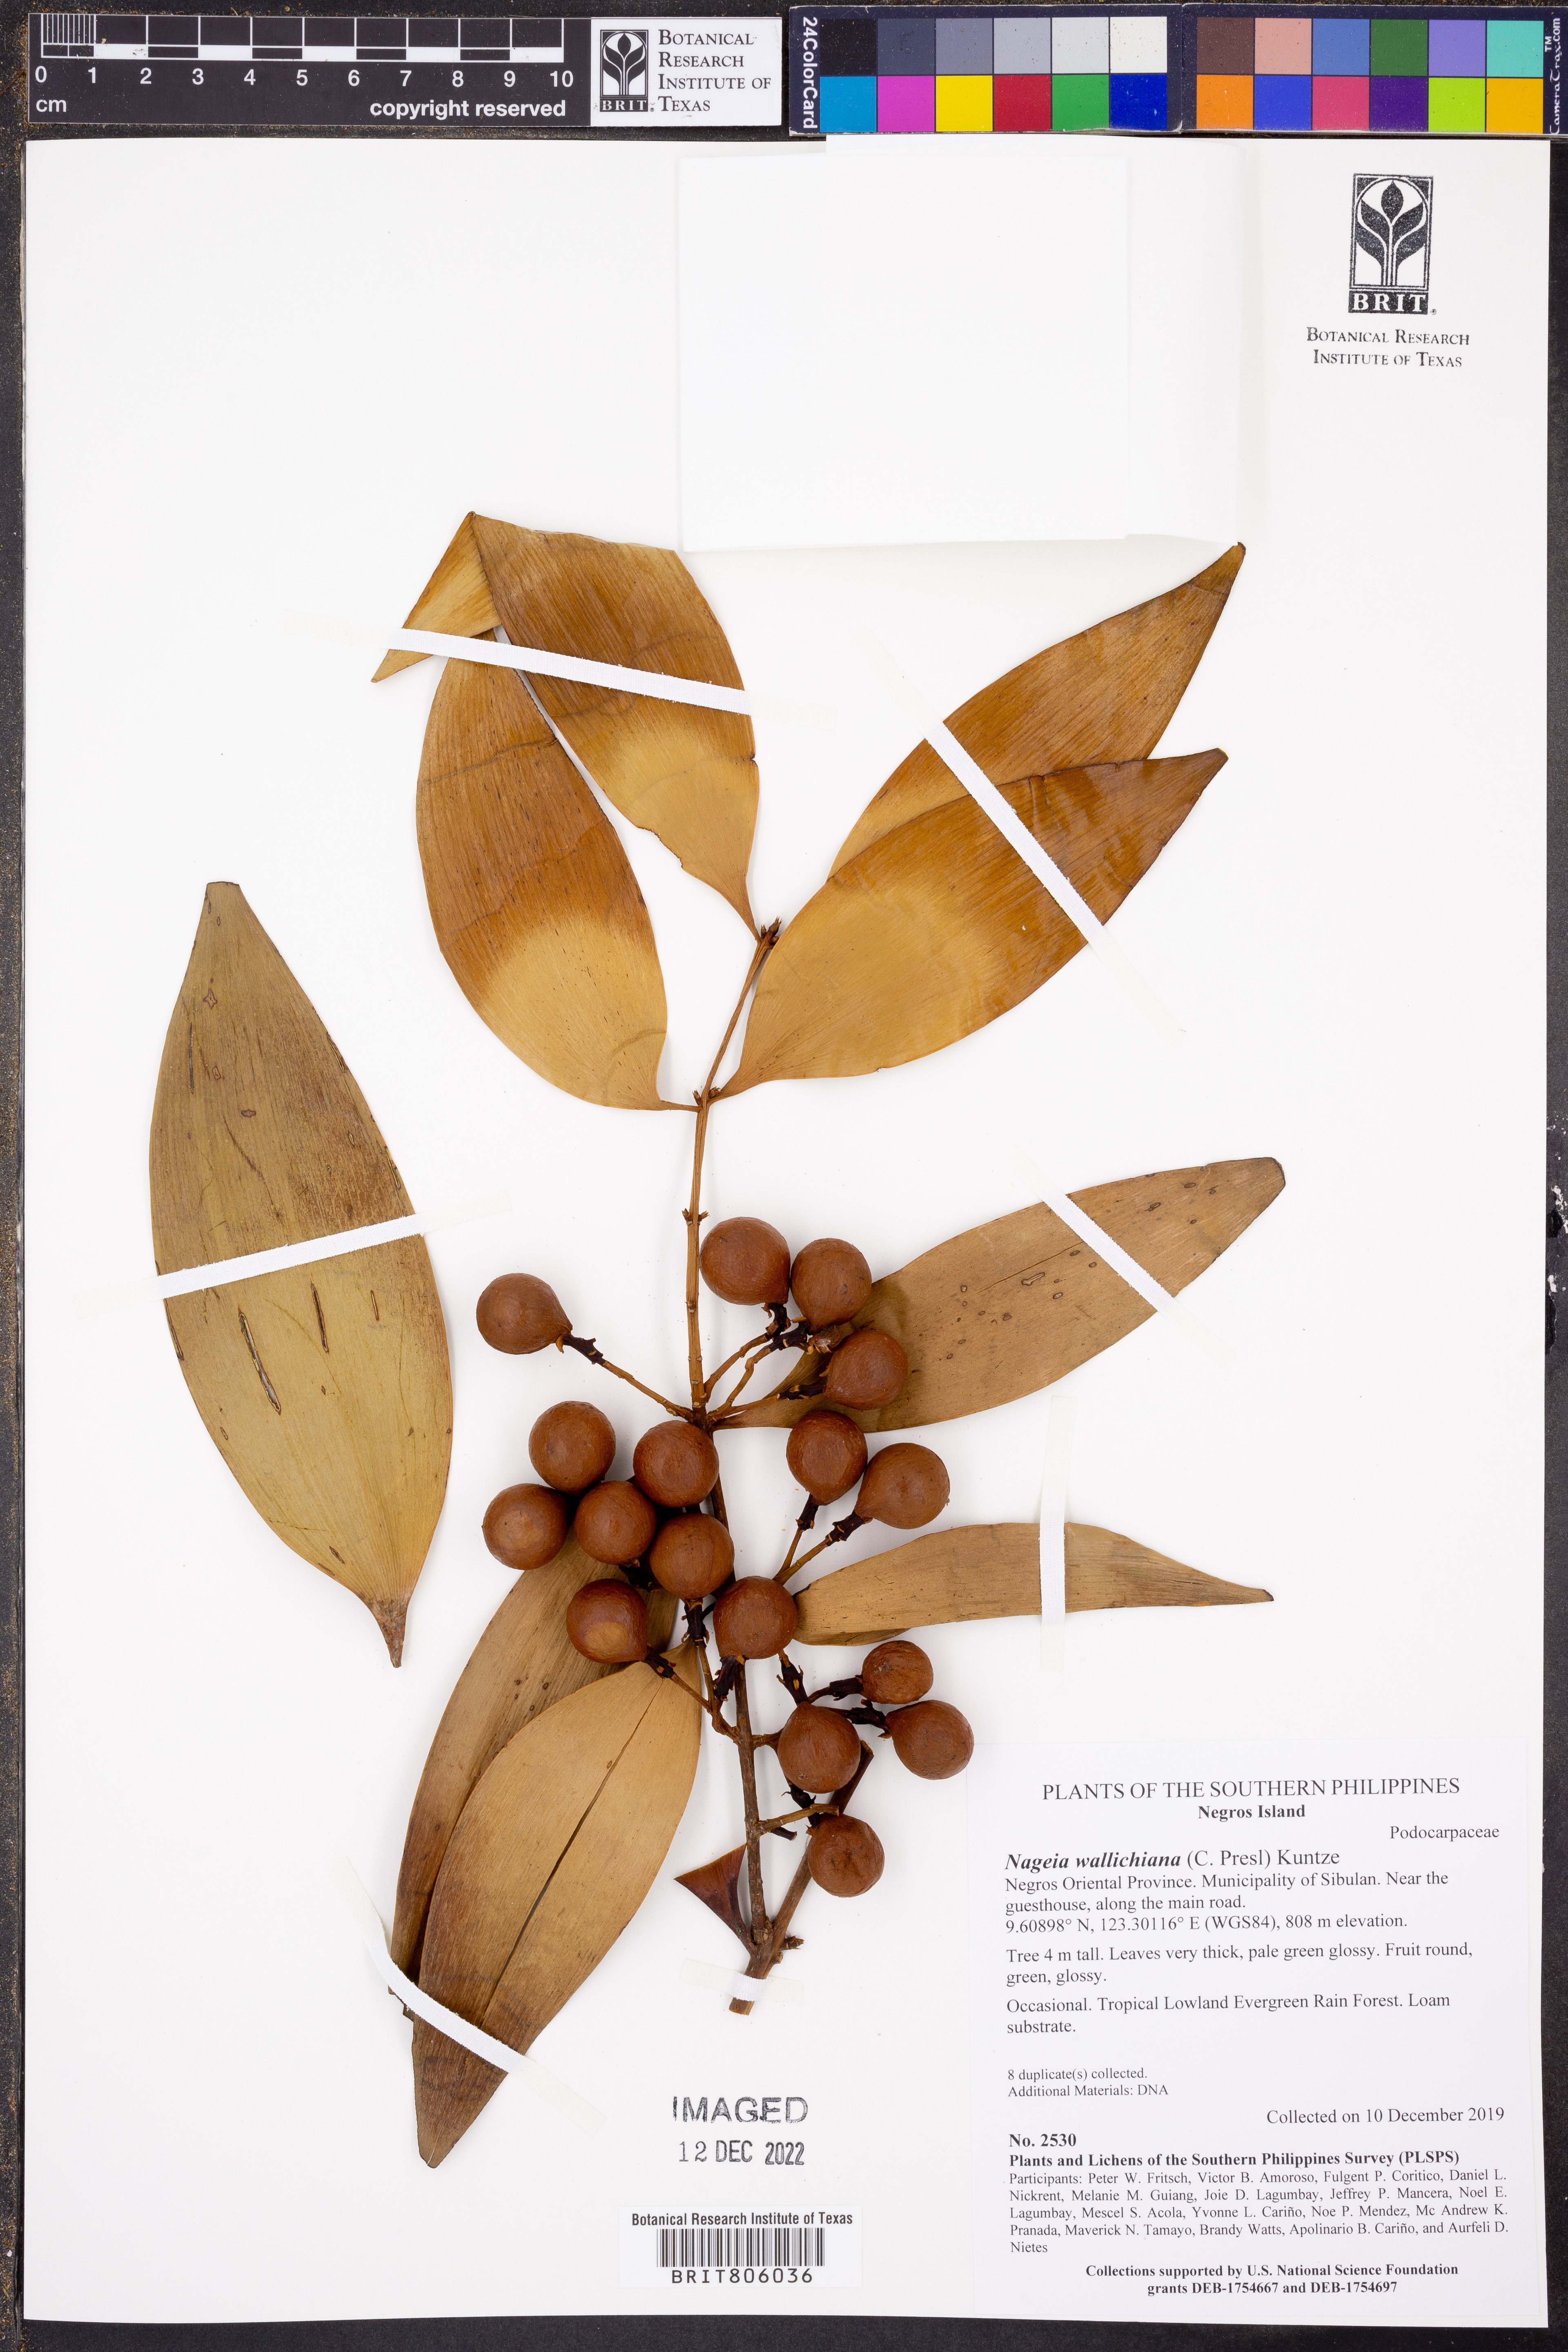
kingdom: Plantae
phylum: Tracheophyta
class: Pinopsida
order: Pinales
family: Podocarpaceae
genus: Nageia
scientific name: Nageia wallichiana
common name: Brown's-pine
